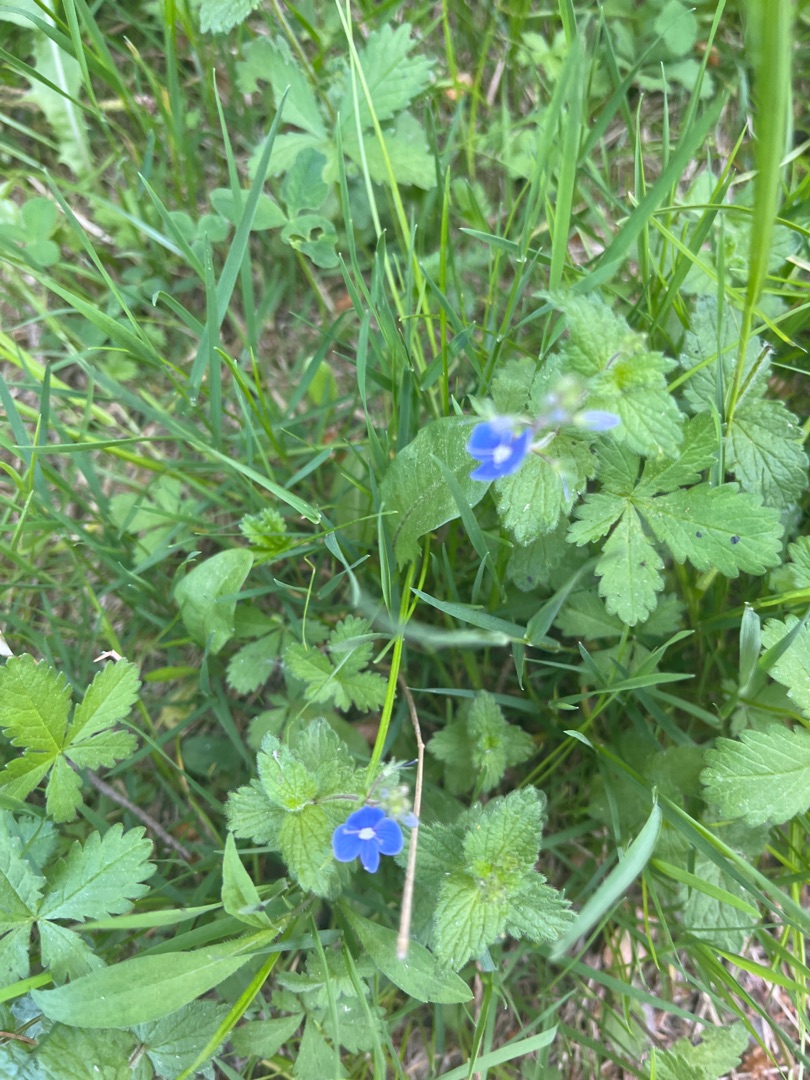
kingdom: Plantae
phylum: Tracheophyta
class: Magnoliopsida
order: Lamiales
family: Plantaginaceae
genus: Veronica
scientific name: Veronica chamaedrys
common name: Tveskægget ærenpris
